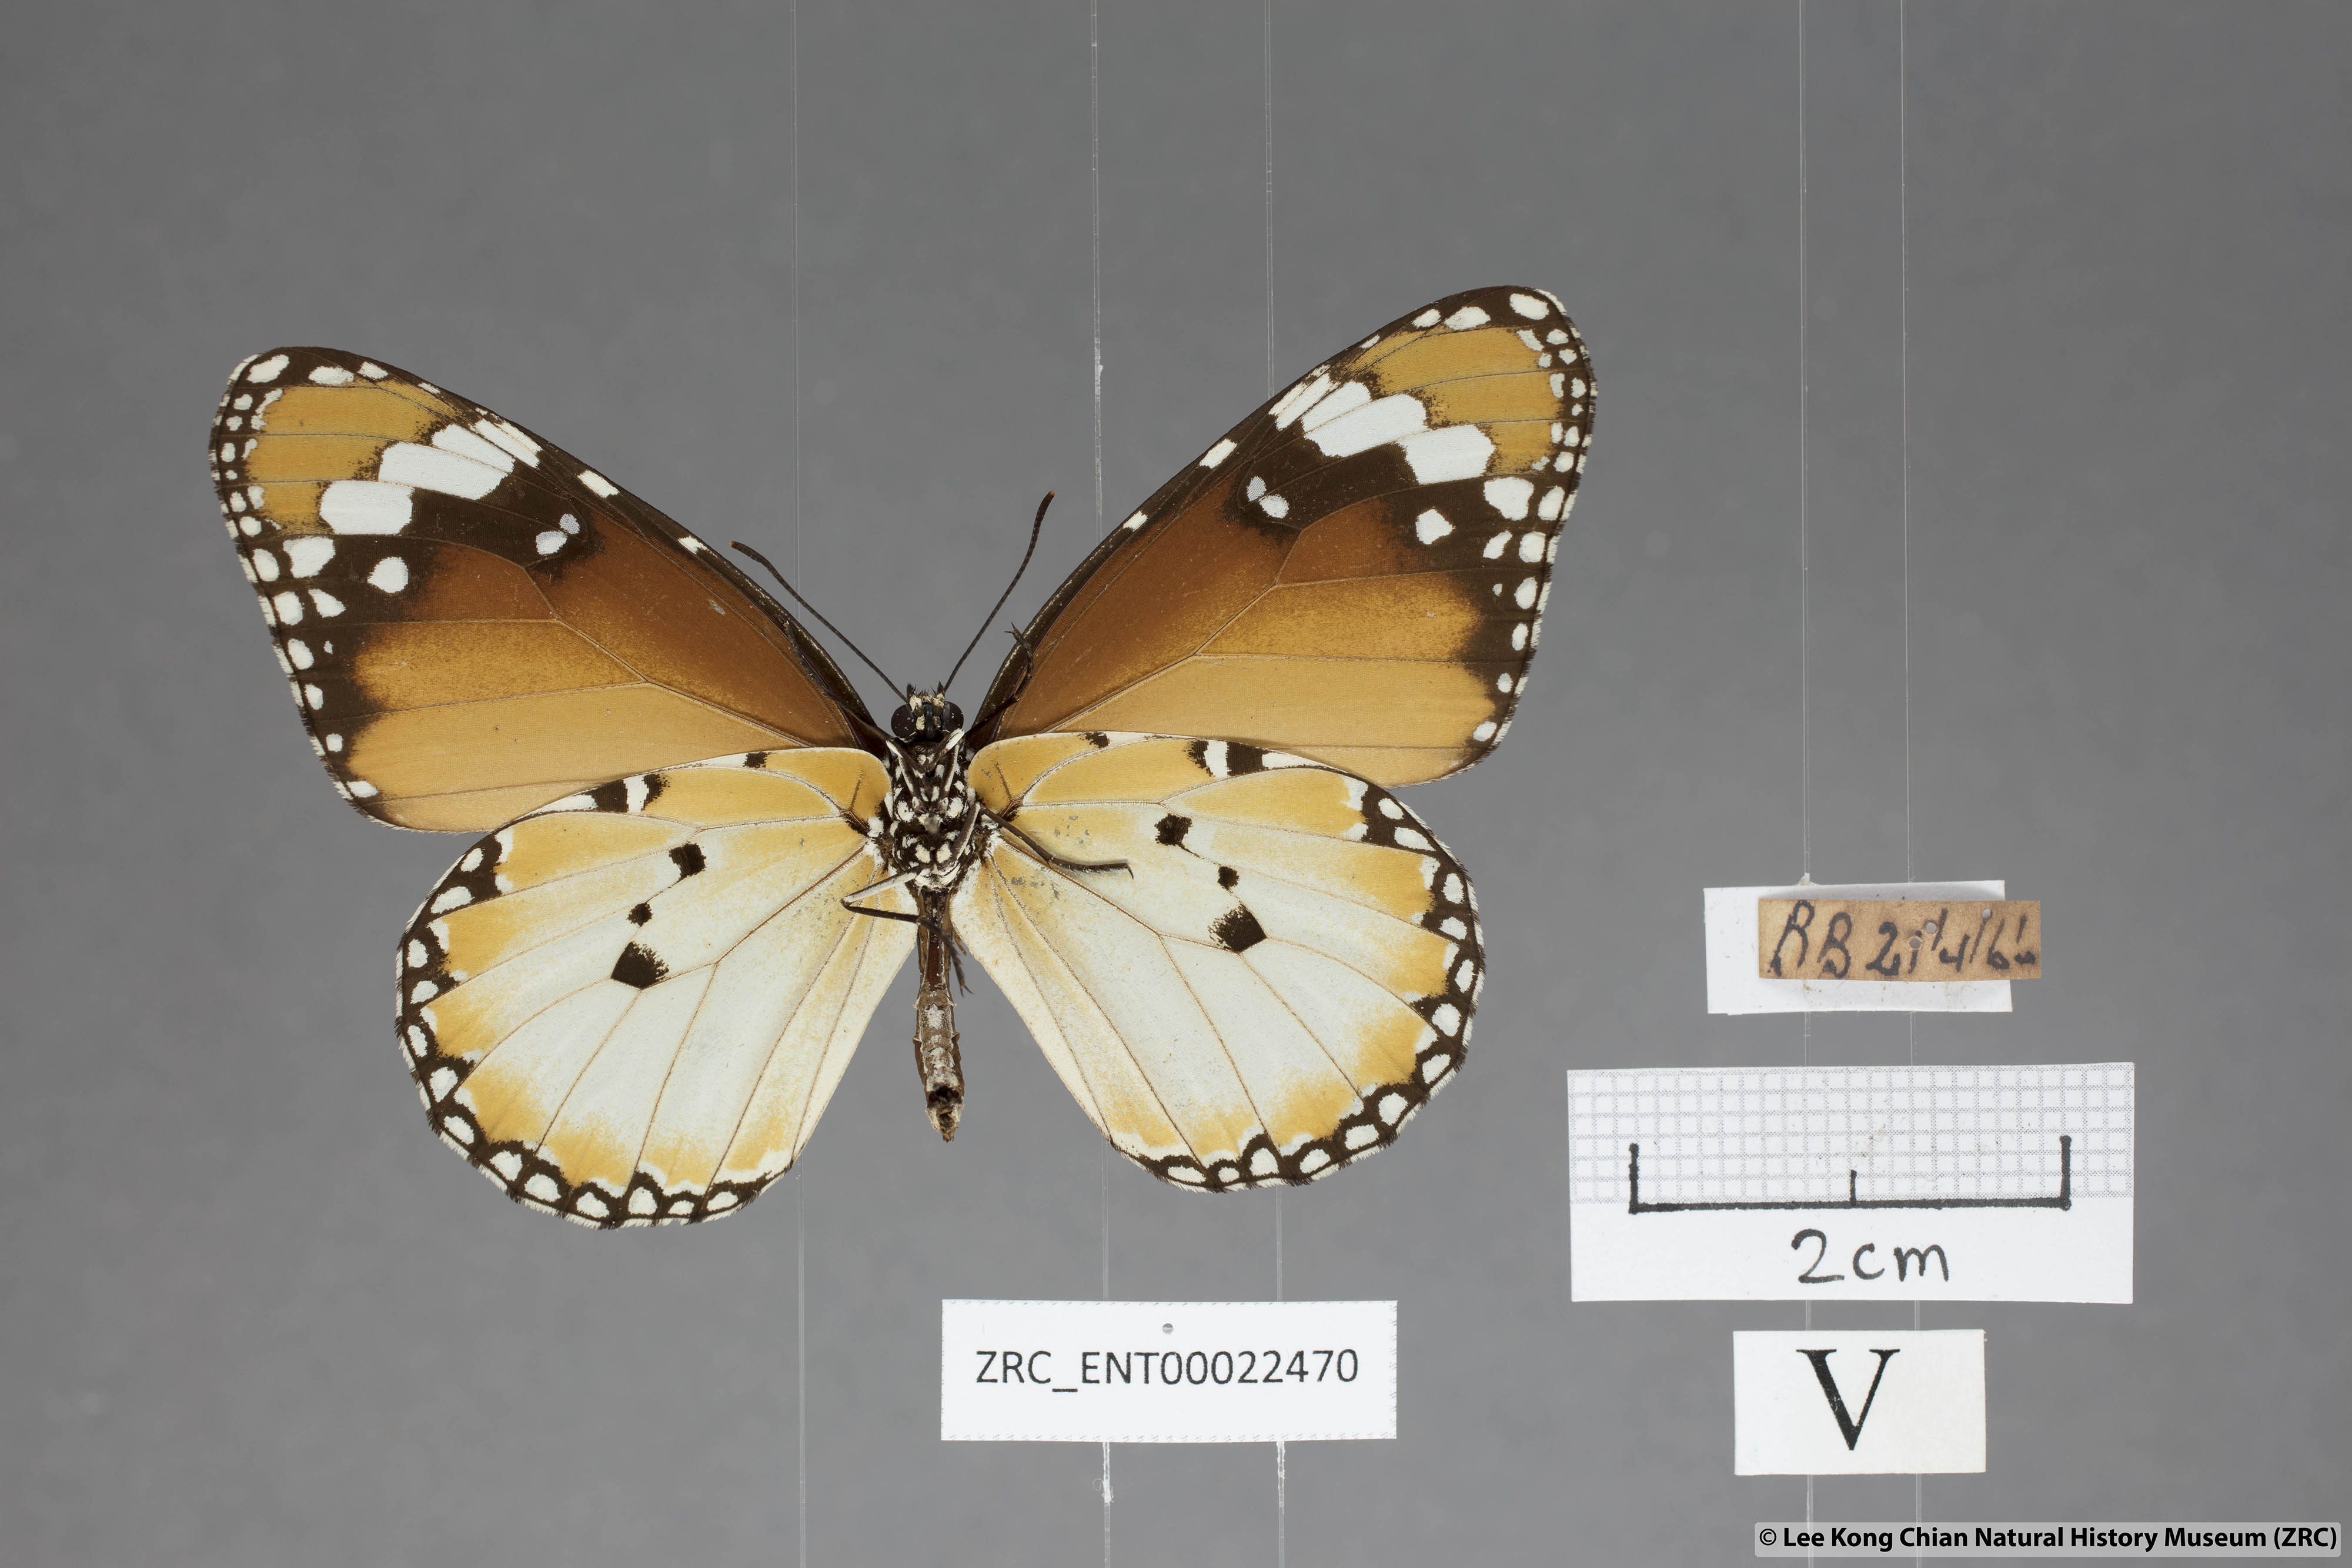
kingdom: Animalia
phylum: Arthropoda
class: Insecta
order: Lepidoptera
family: Nymphalidae
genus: Danaus
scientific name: Danaus chrysippus
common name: Plain tiger
